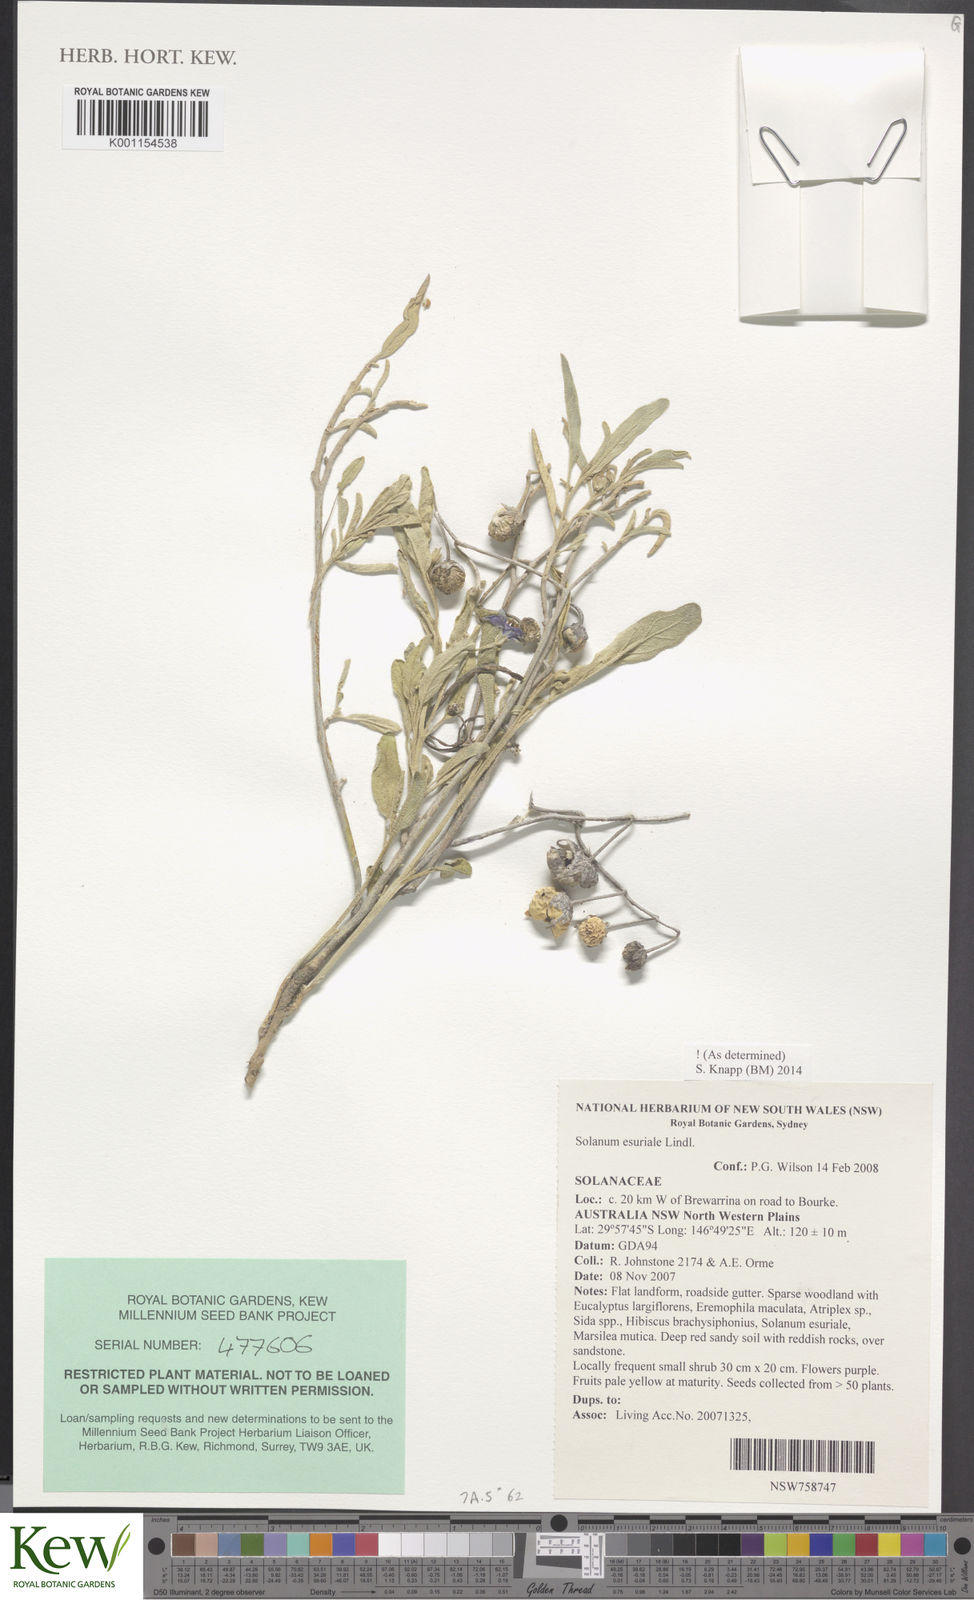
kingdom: Plantae
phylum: Tracheophyta
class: Magnoliopsida
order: Solanales
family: Solanaceae
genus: Solanum
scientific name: Solanum esuriale
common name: Wild tomato
